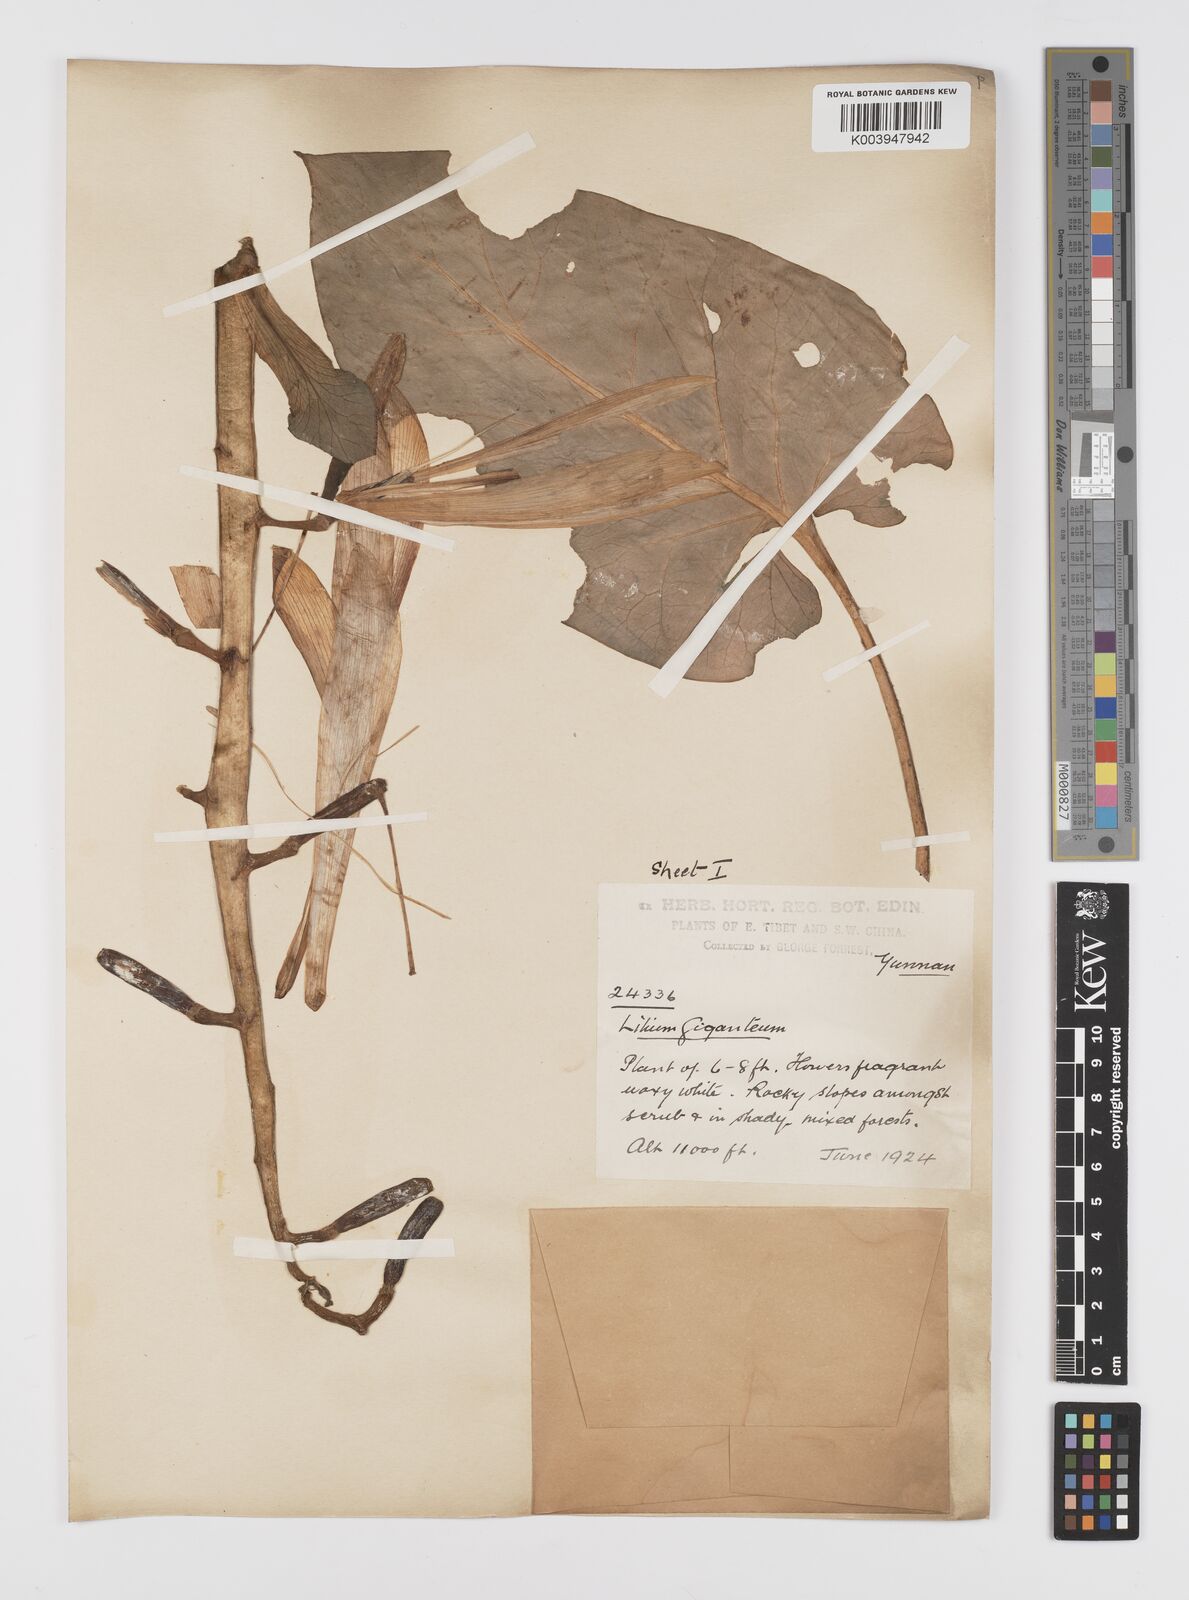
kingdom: Plantae
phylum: Tracheophyta
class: Liliopsida
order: Liliales
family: Liliaceae
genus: Cardiocrinum
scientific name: Cardiocrinum giganteum
